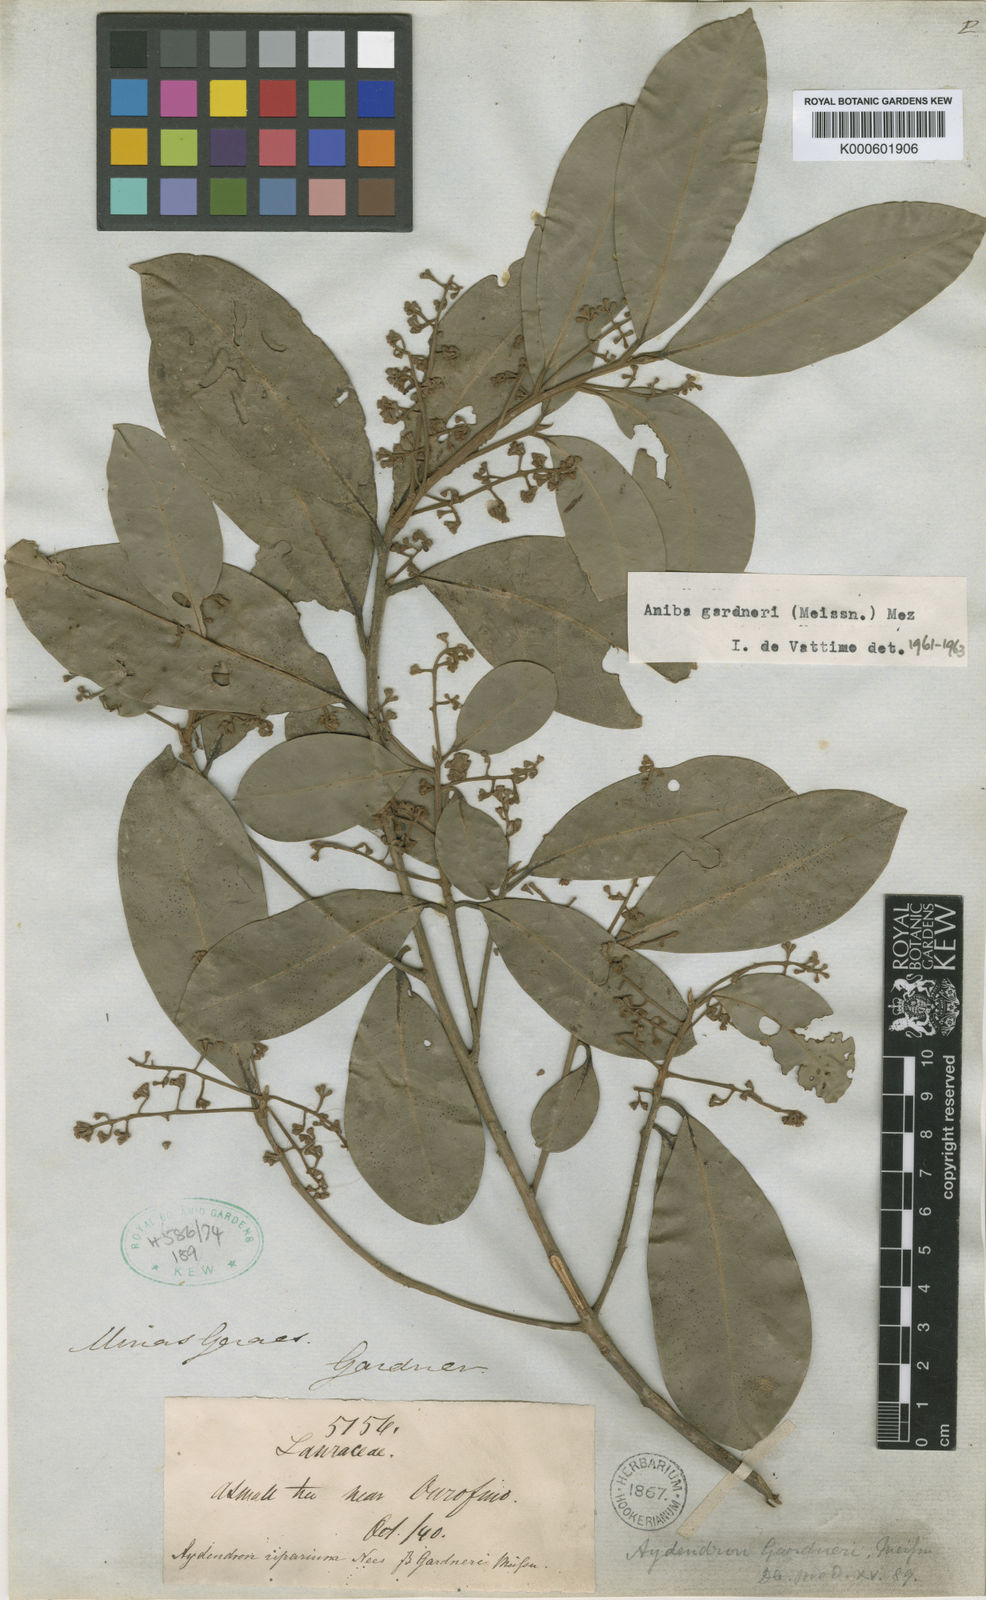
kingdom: Plantae
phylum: Tracheophyta
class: Magnoliopsida
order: Laurales
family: Lauraceae
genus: Aniba
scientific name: Aniba firmula
